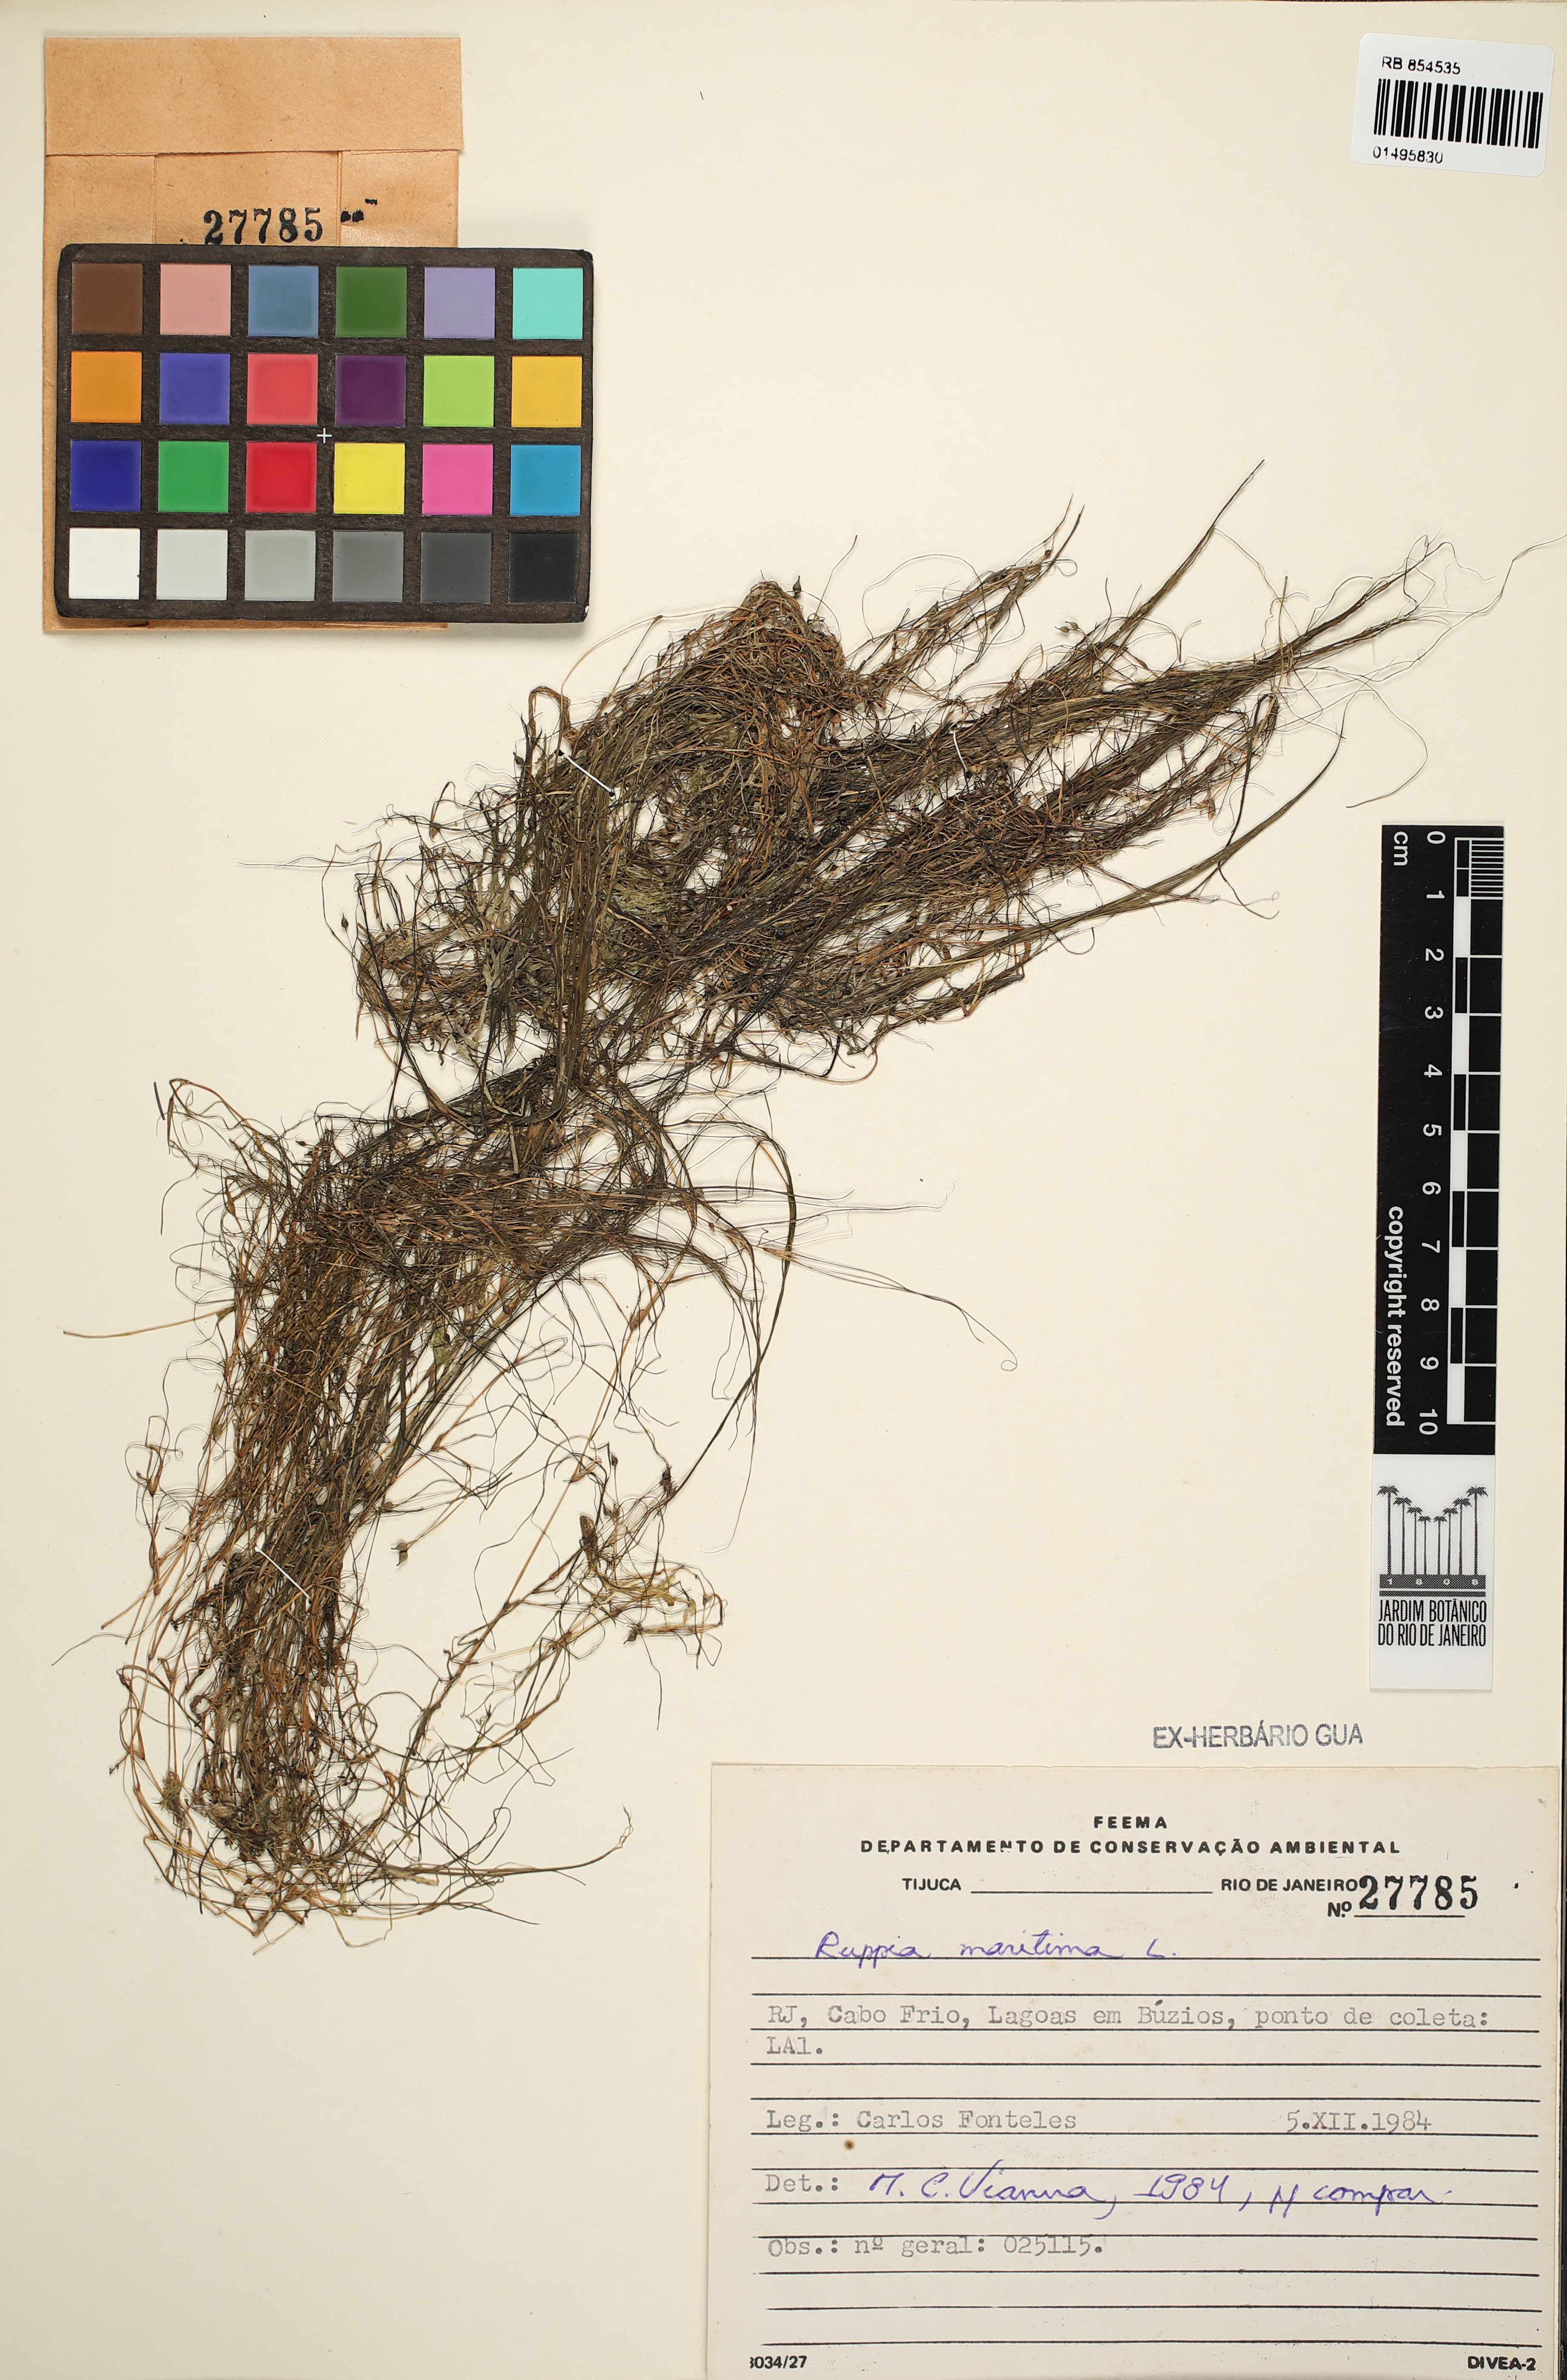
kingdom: Plantae
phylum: Tracheophyta
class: Liliopsida
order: Alismatales
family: Ruppiaceae
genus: Ruppia
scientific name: Ruppia maritima
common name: Beaked tasselweed
